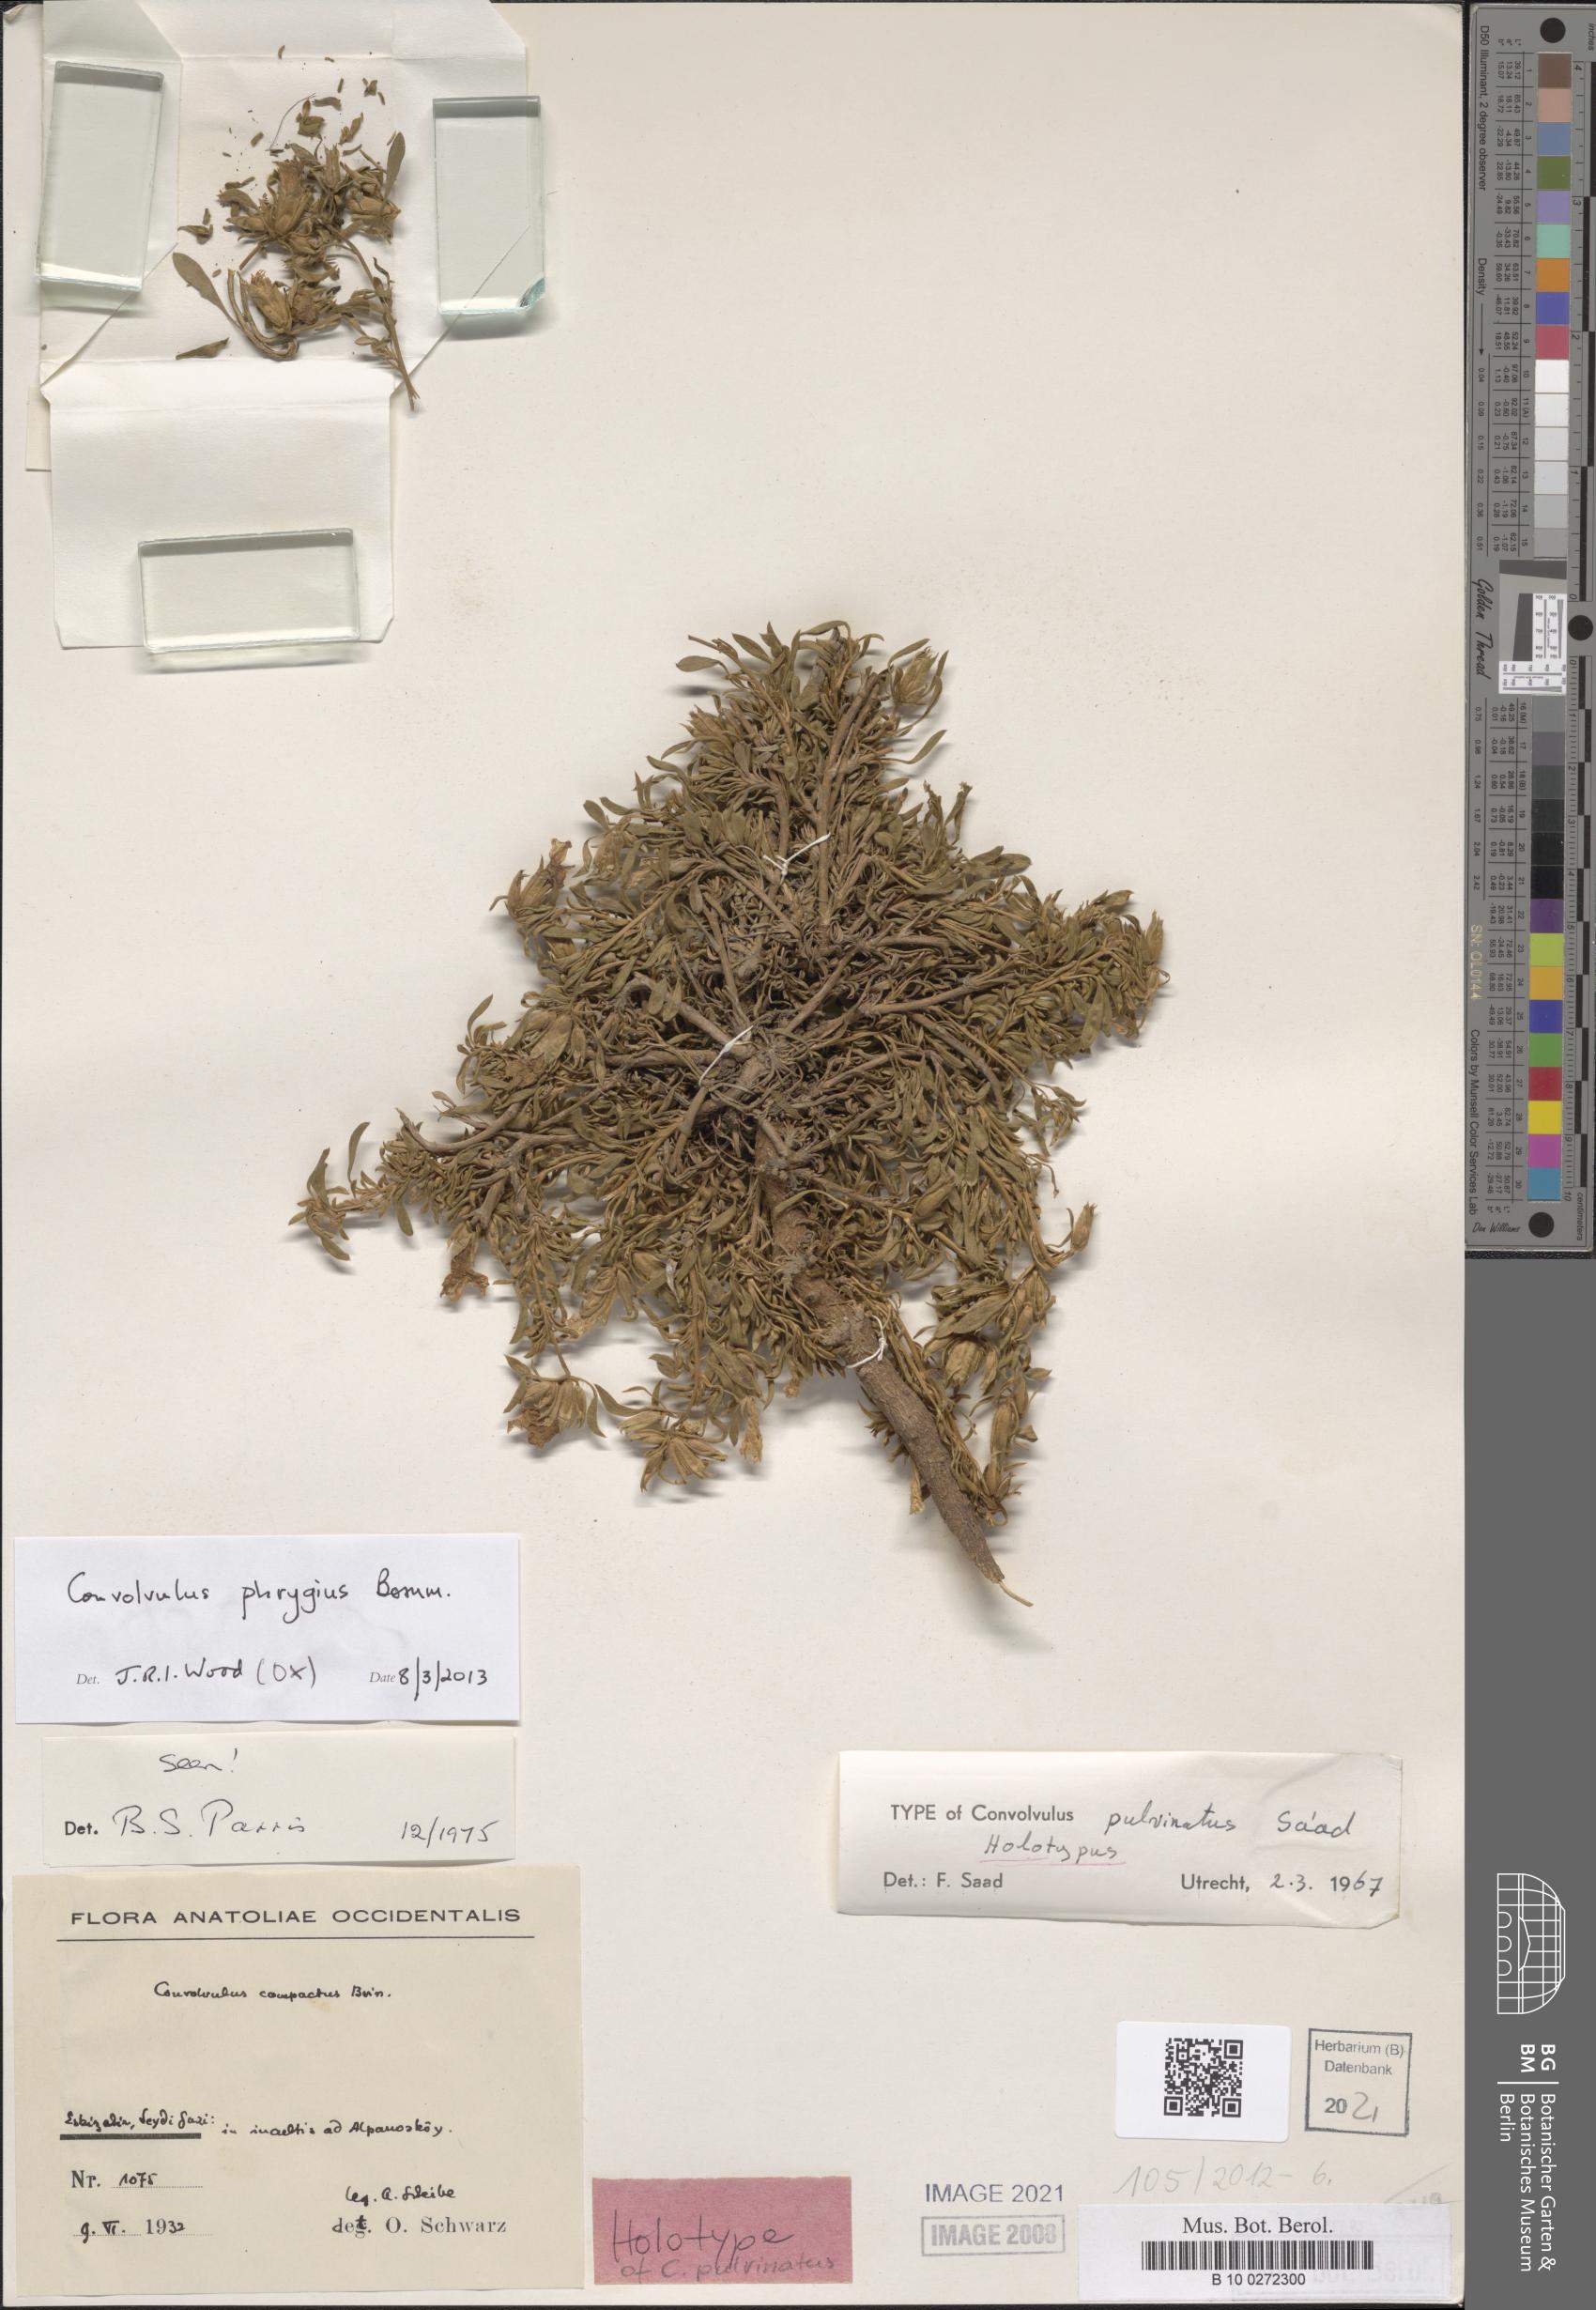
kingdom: Plantae
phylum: Tracheophyta
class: Magnoliopsida
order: Solanales
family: Convolvulaceae
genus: Convolvulus
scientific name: Convolvulus phrygius
